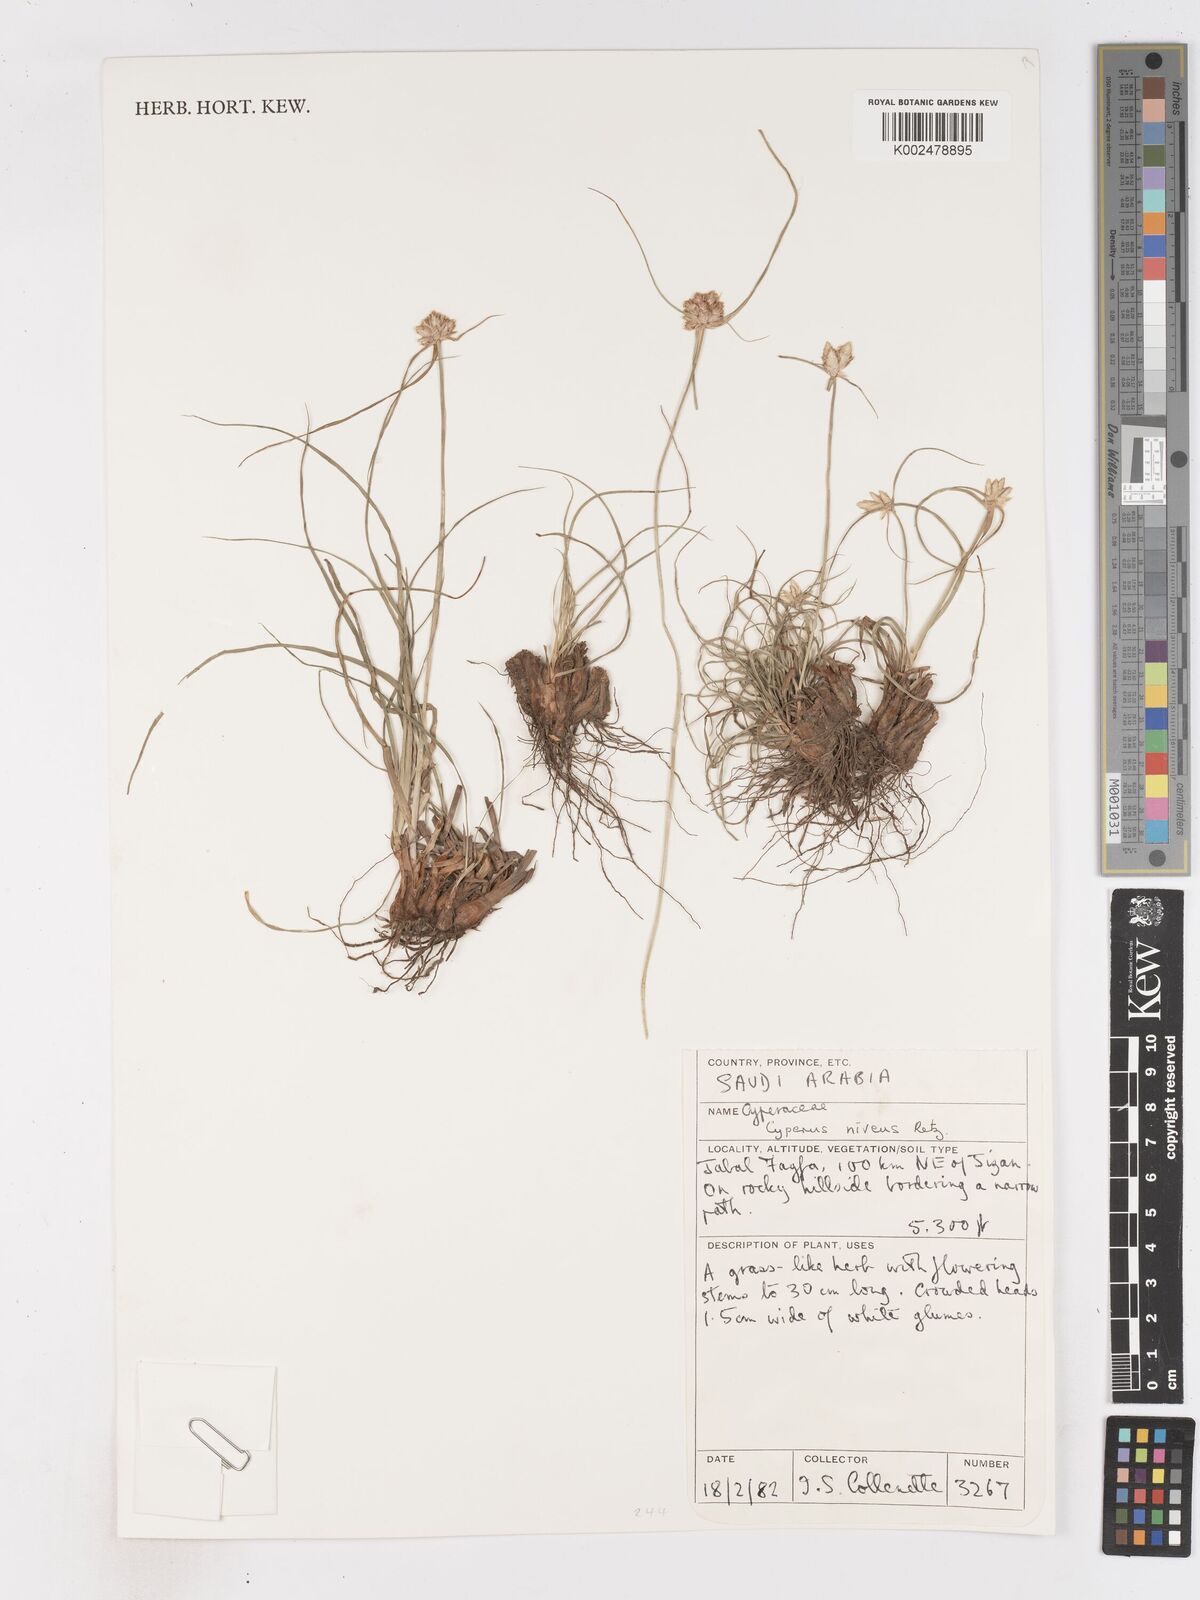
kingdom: Plantae
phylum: Tracheophyta
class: Liliopsida
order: Poales
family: Cyperaceae
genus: Cyperus
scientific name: Cyperus niveus
